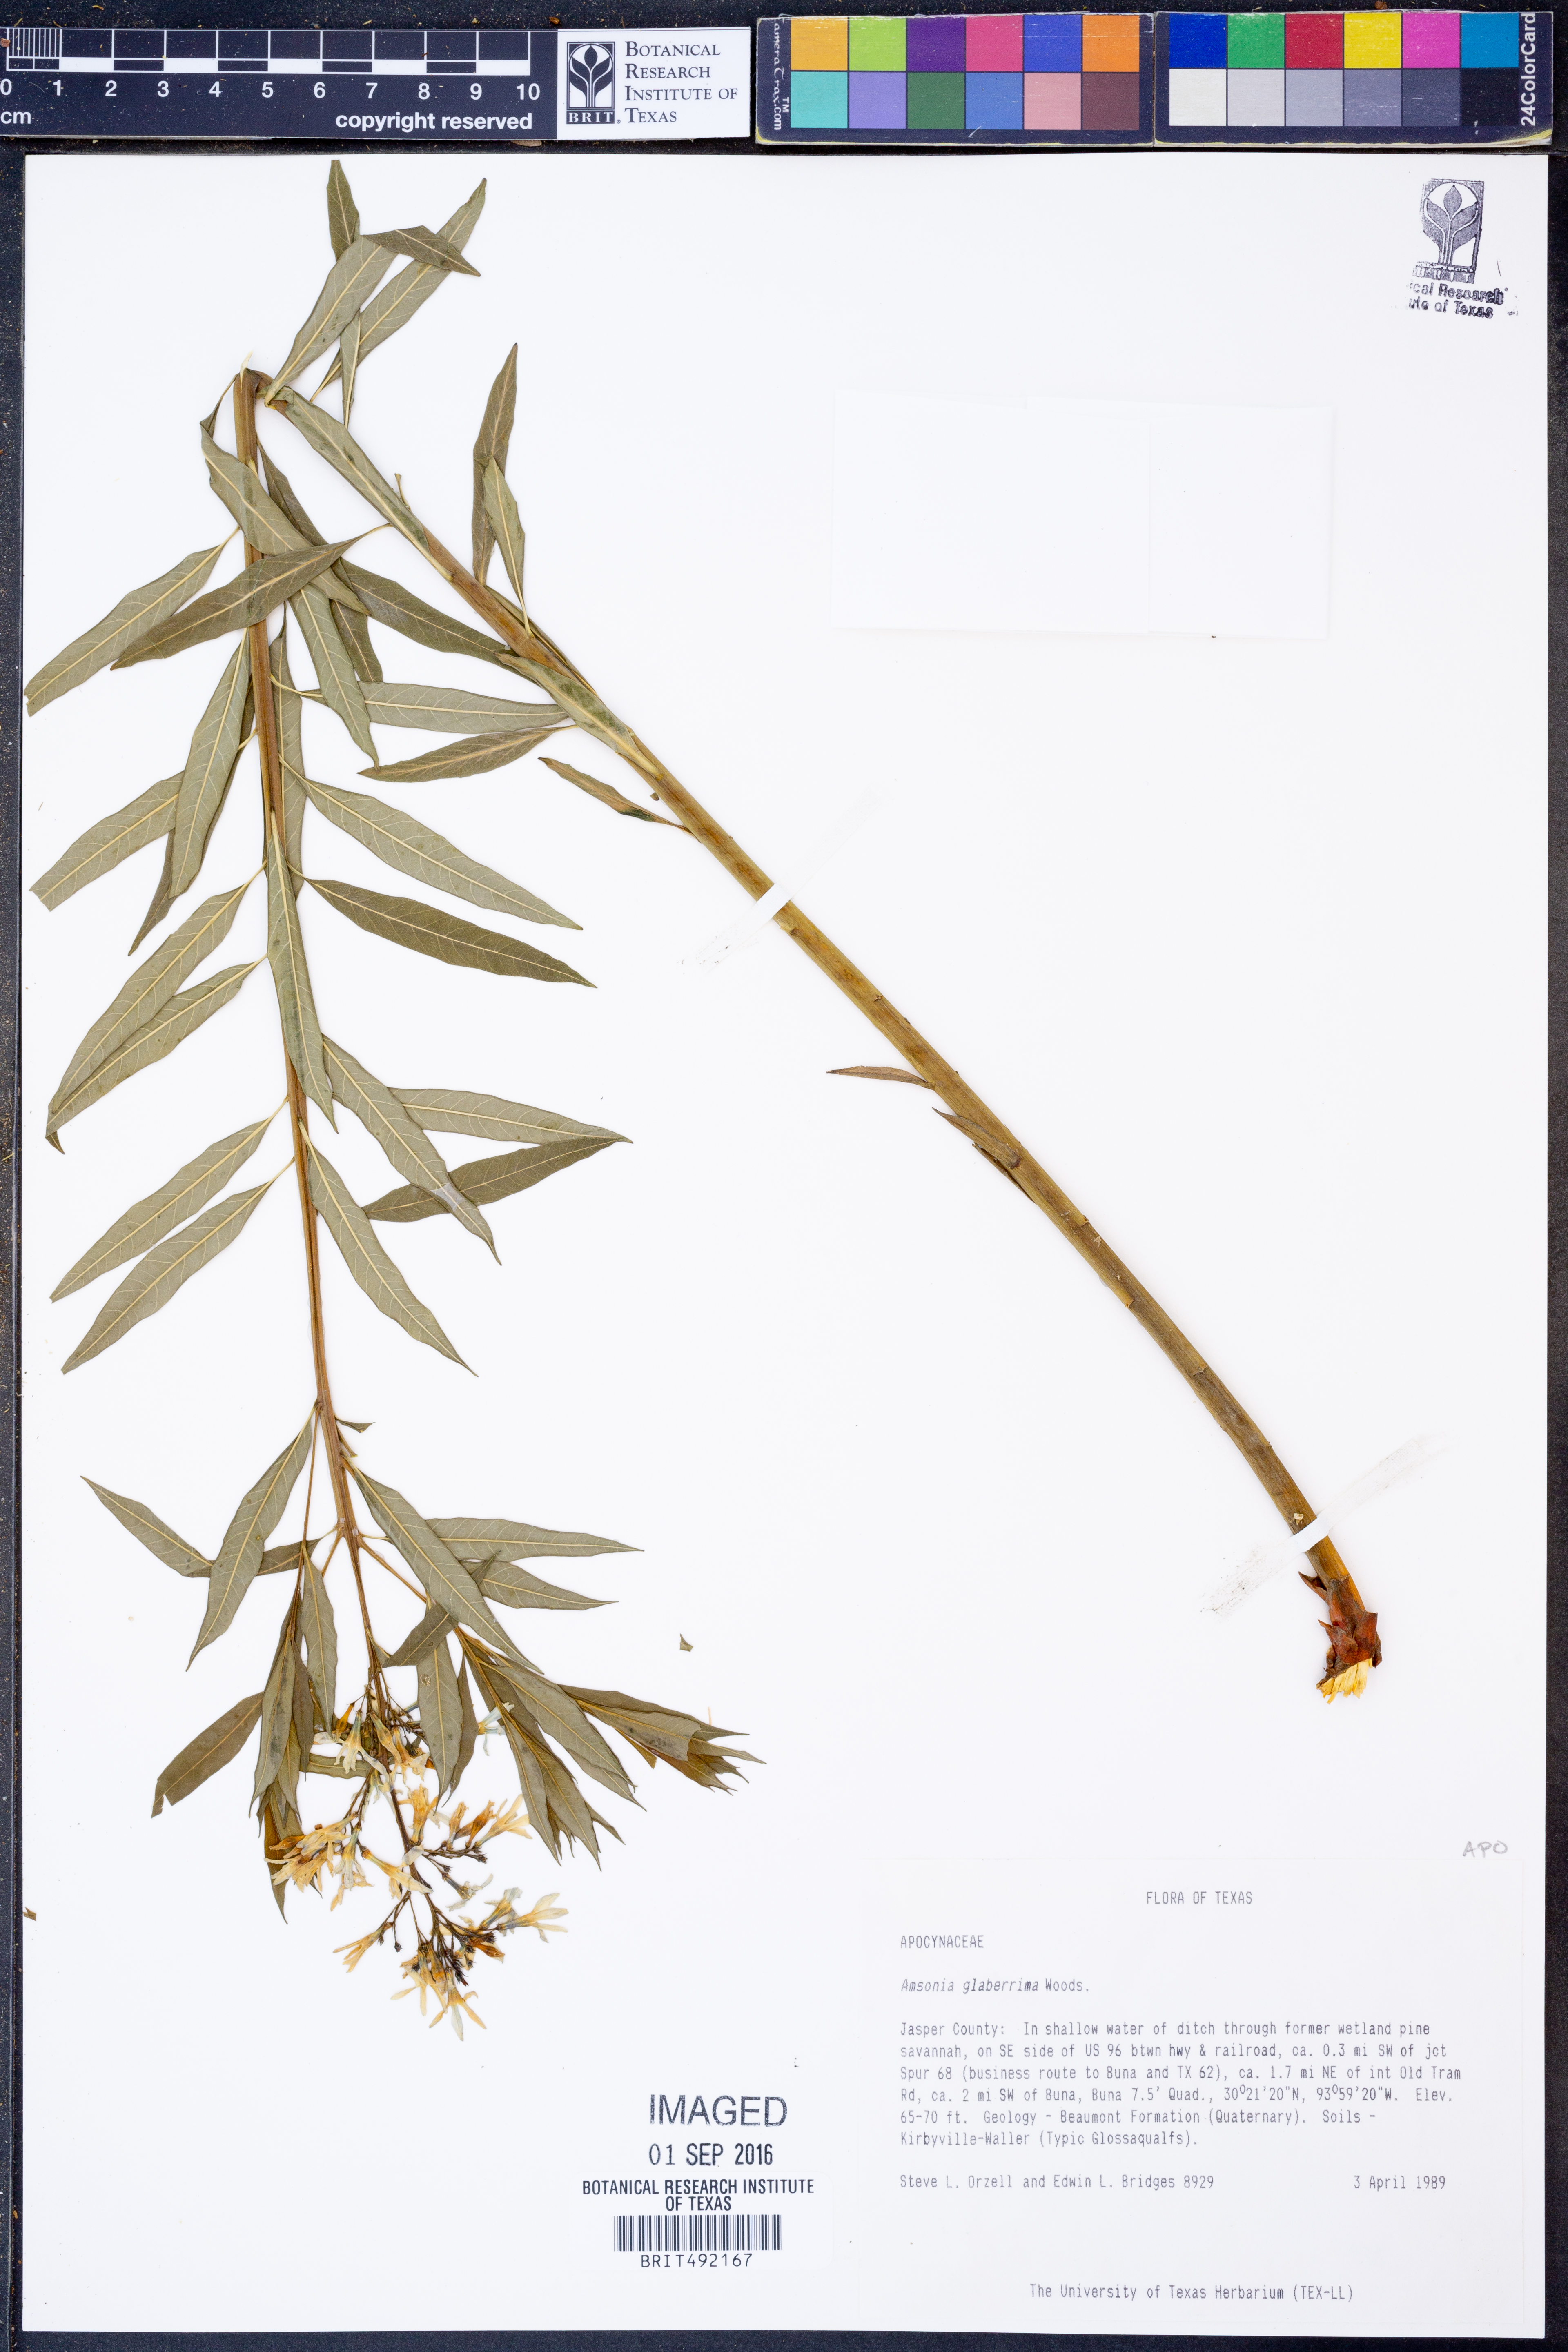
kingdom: Plantae
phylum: Tracheophyta
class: Magnoliopsida
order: Gentianales
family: Apocynaceae
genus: Amsonia
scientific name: Amsonia tabernaemontana
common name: Texas-star
